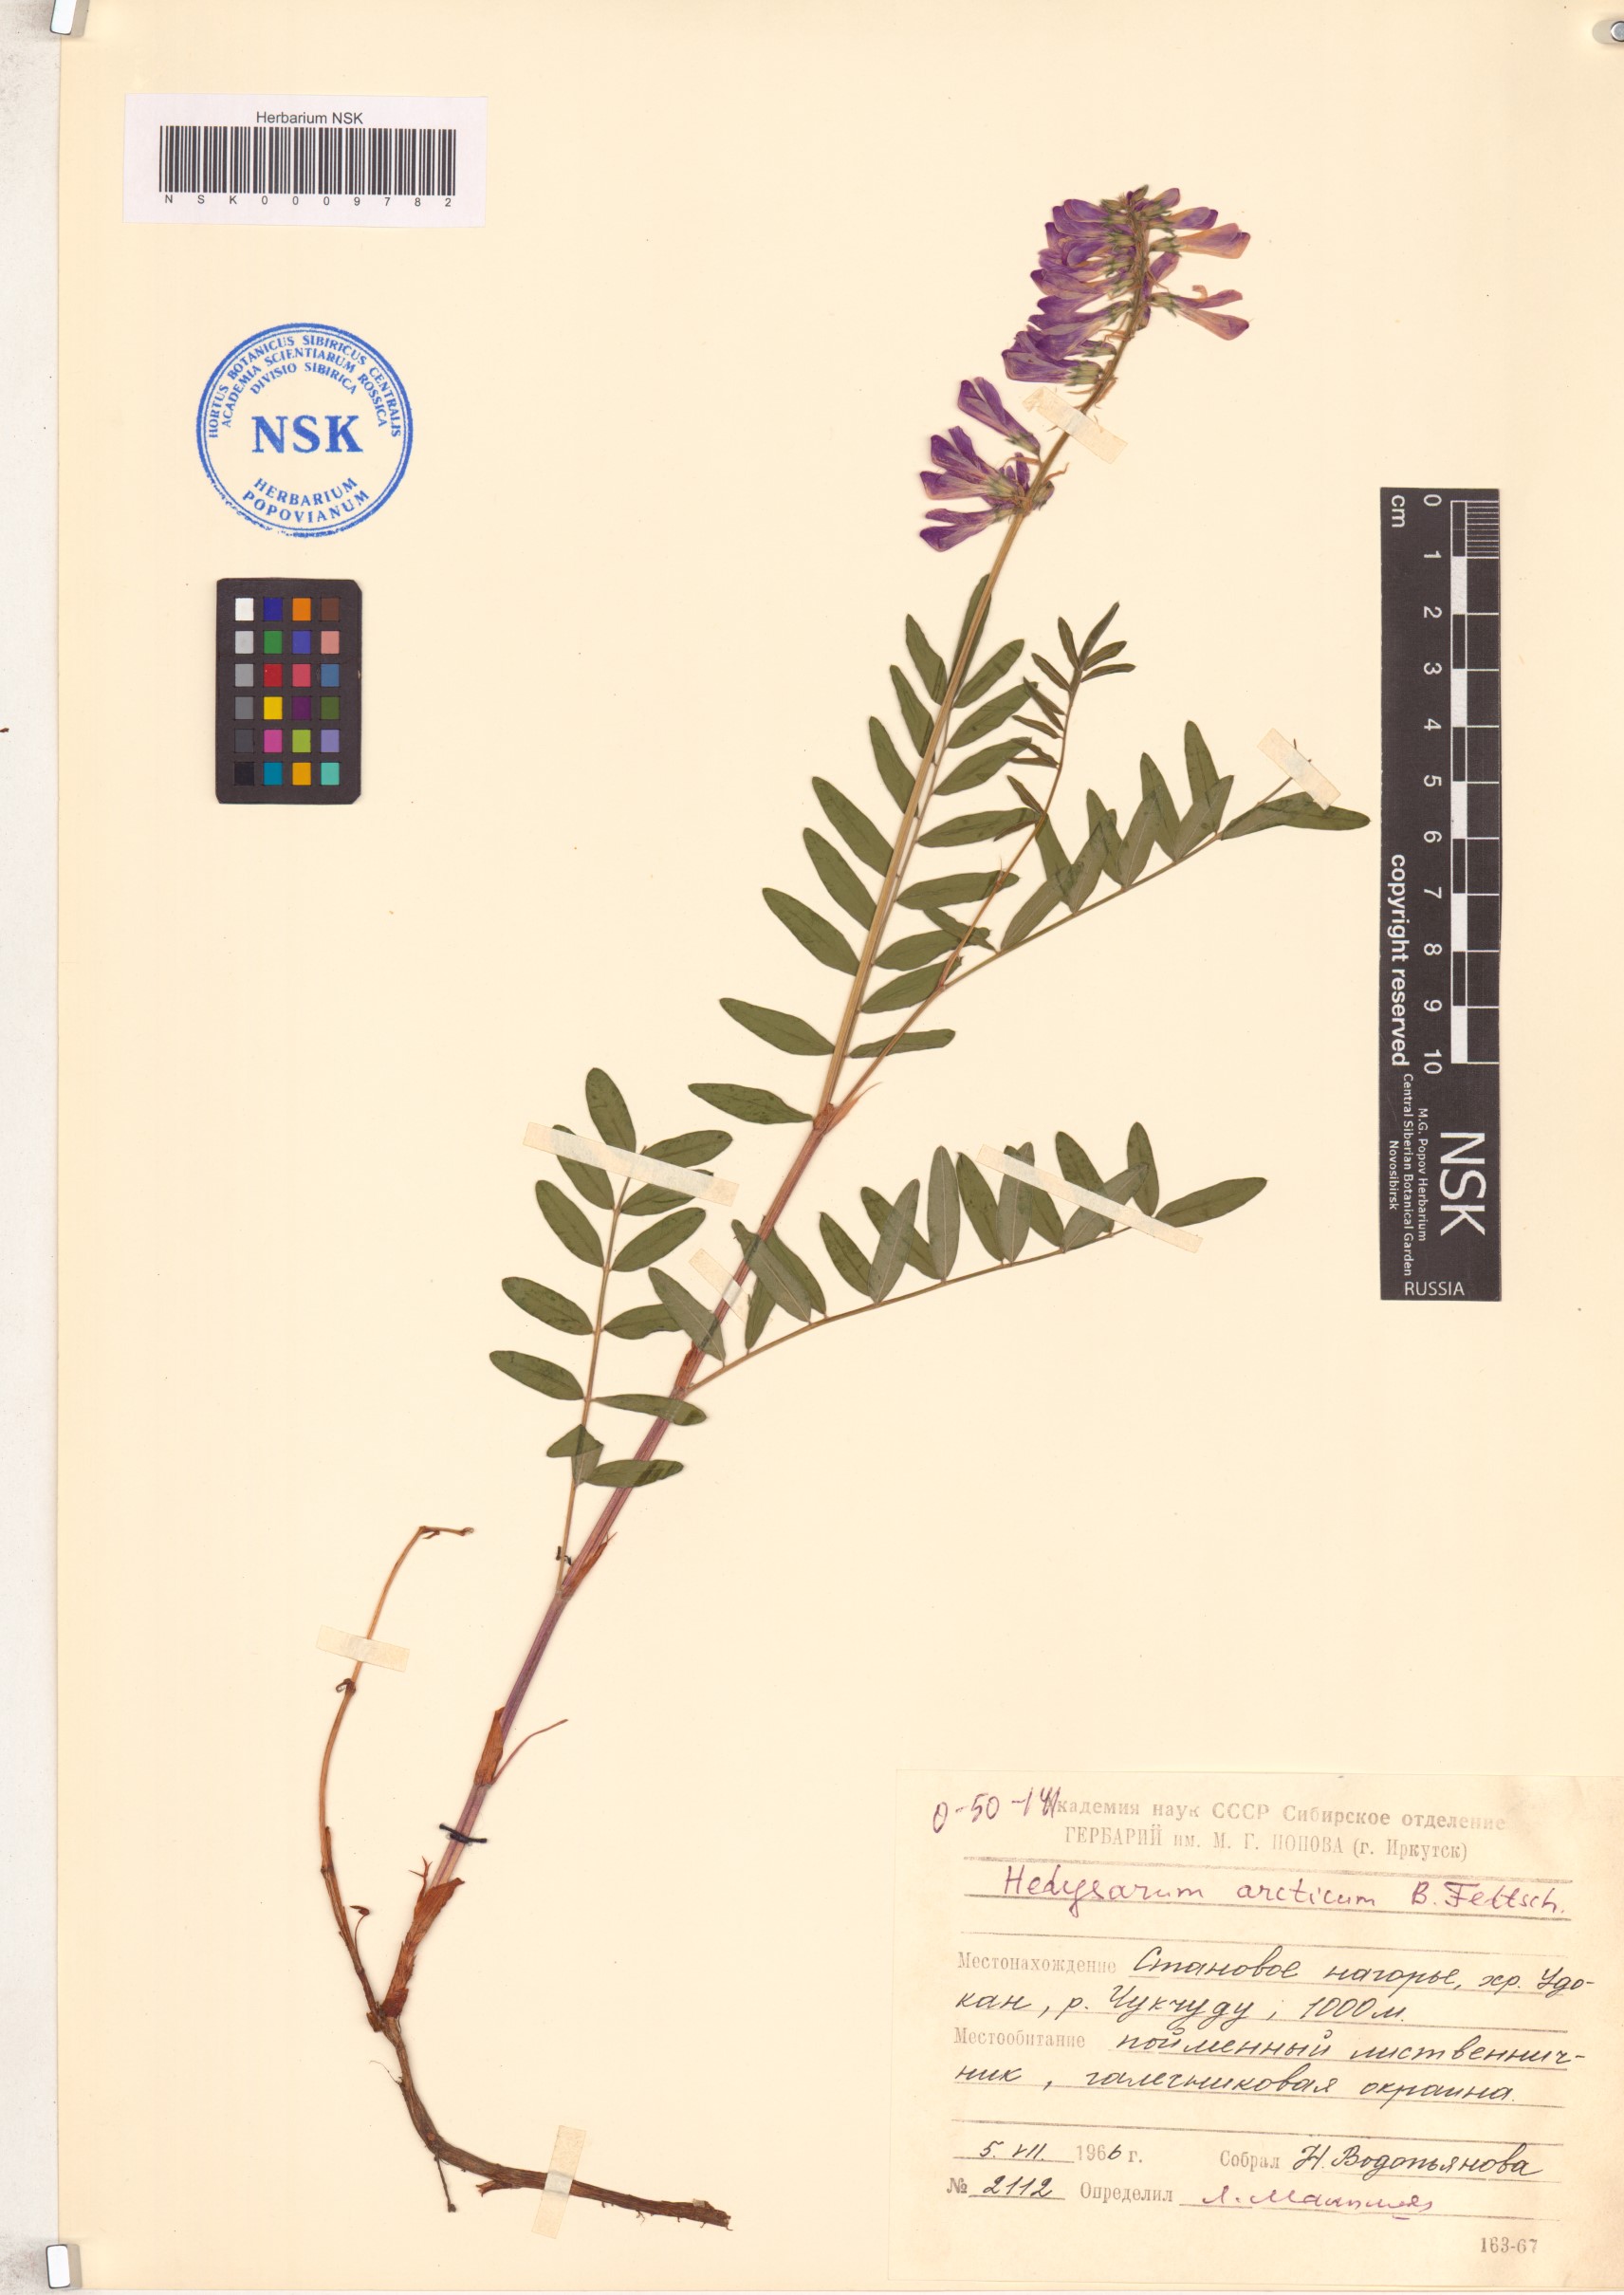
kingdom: Plantae
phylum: Tracheophyta
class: Magnoliopsida
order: Fabales
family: Fabaceae
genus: Hedysarum
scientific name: Hedysarum hedysaroides
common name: Alpine french-honeysuckle
